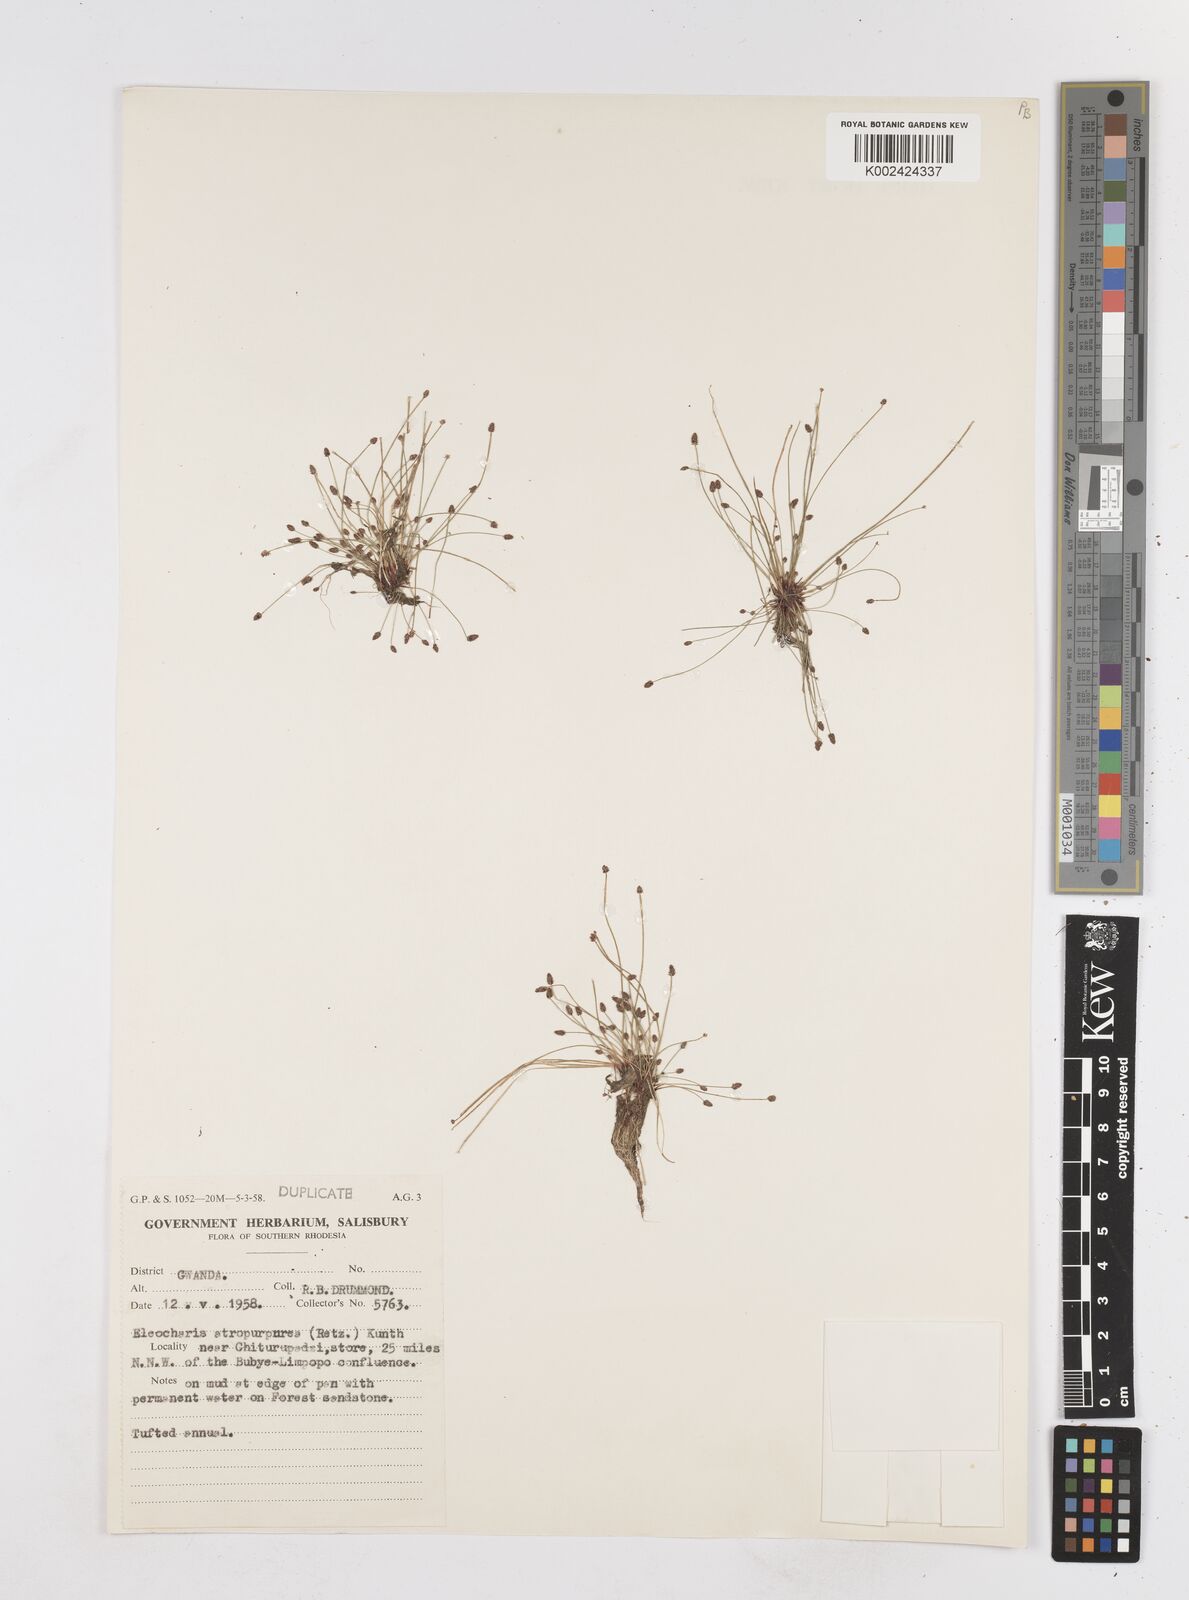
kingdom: Plantae
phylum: Tracheophyta
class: Liliopsida
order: Poales
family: Cyperaceae
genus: Eleocharis
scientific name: Eleocharis atropurpurea
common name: Purple spikerush
